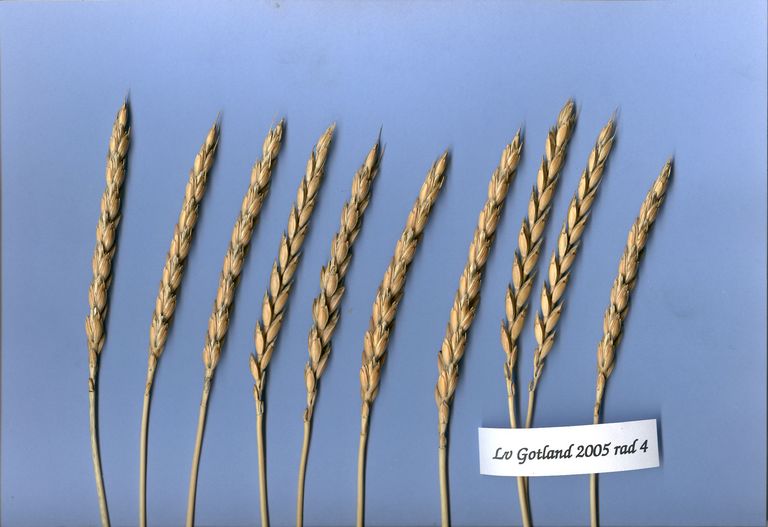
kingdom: Plantae
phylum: Tracheophyta
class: Liliopsida
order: Poales
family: Poaceae
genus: Triticum
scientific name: Triticum aestivum
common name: Common wheat
